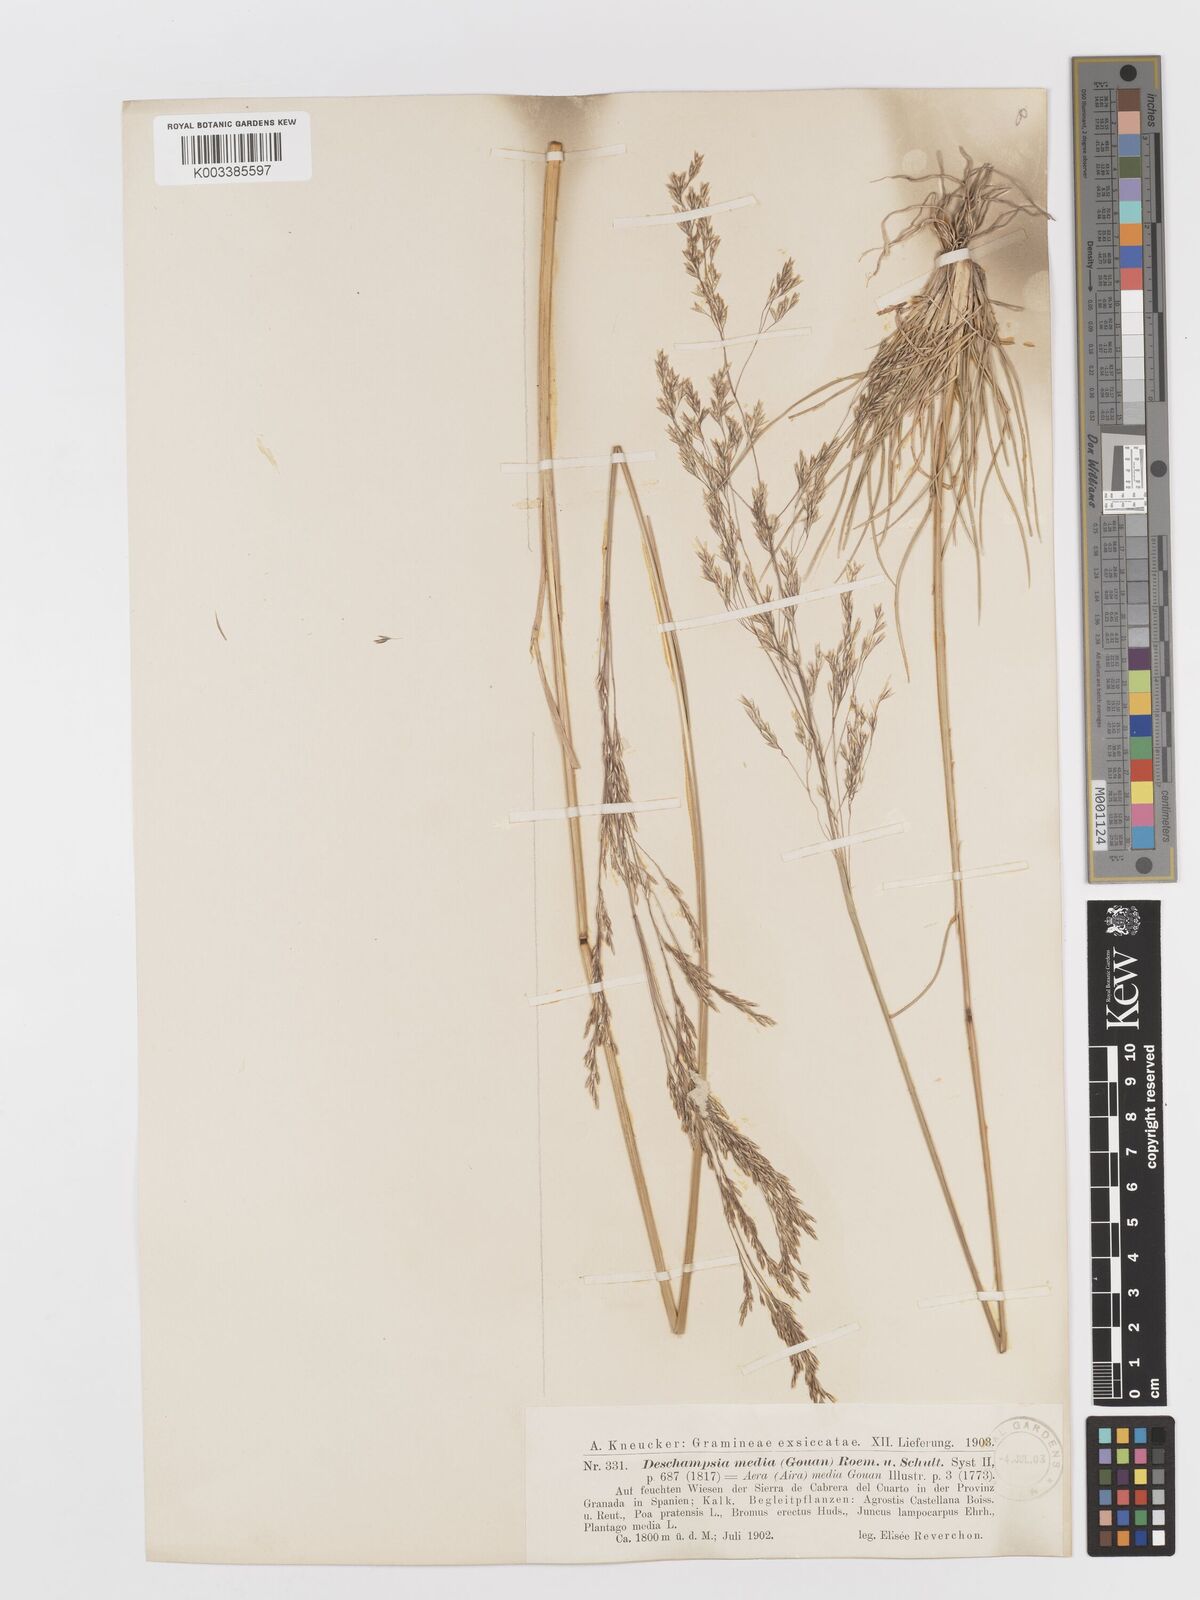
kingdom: Plantae
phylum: Tracheophyta
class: Liliopsida
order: Poales
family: Poaceae
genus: Deschampsia
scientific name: Deschampsia media
